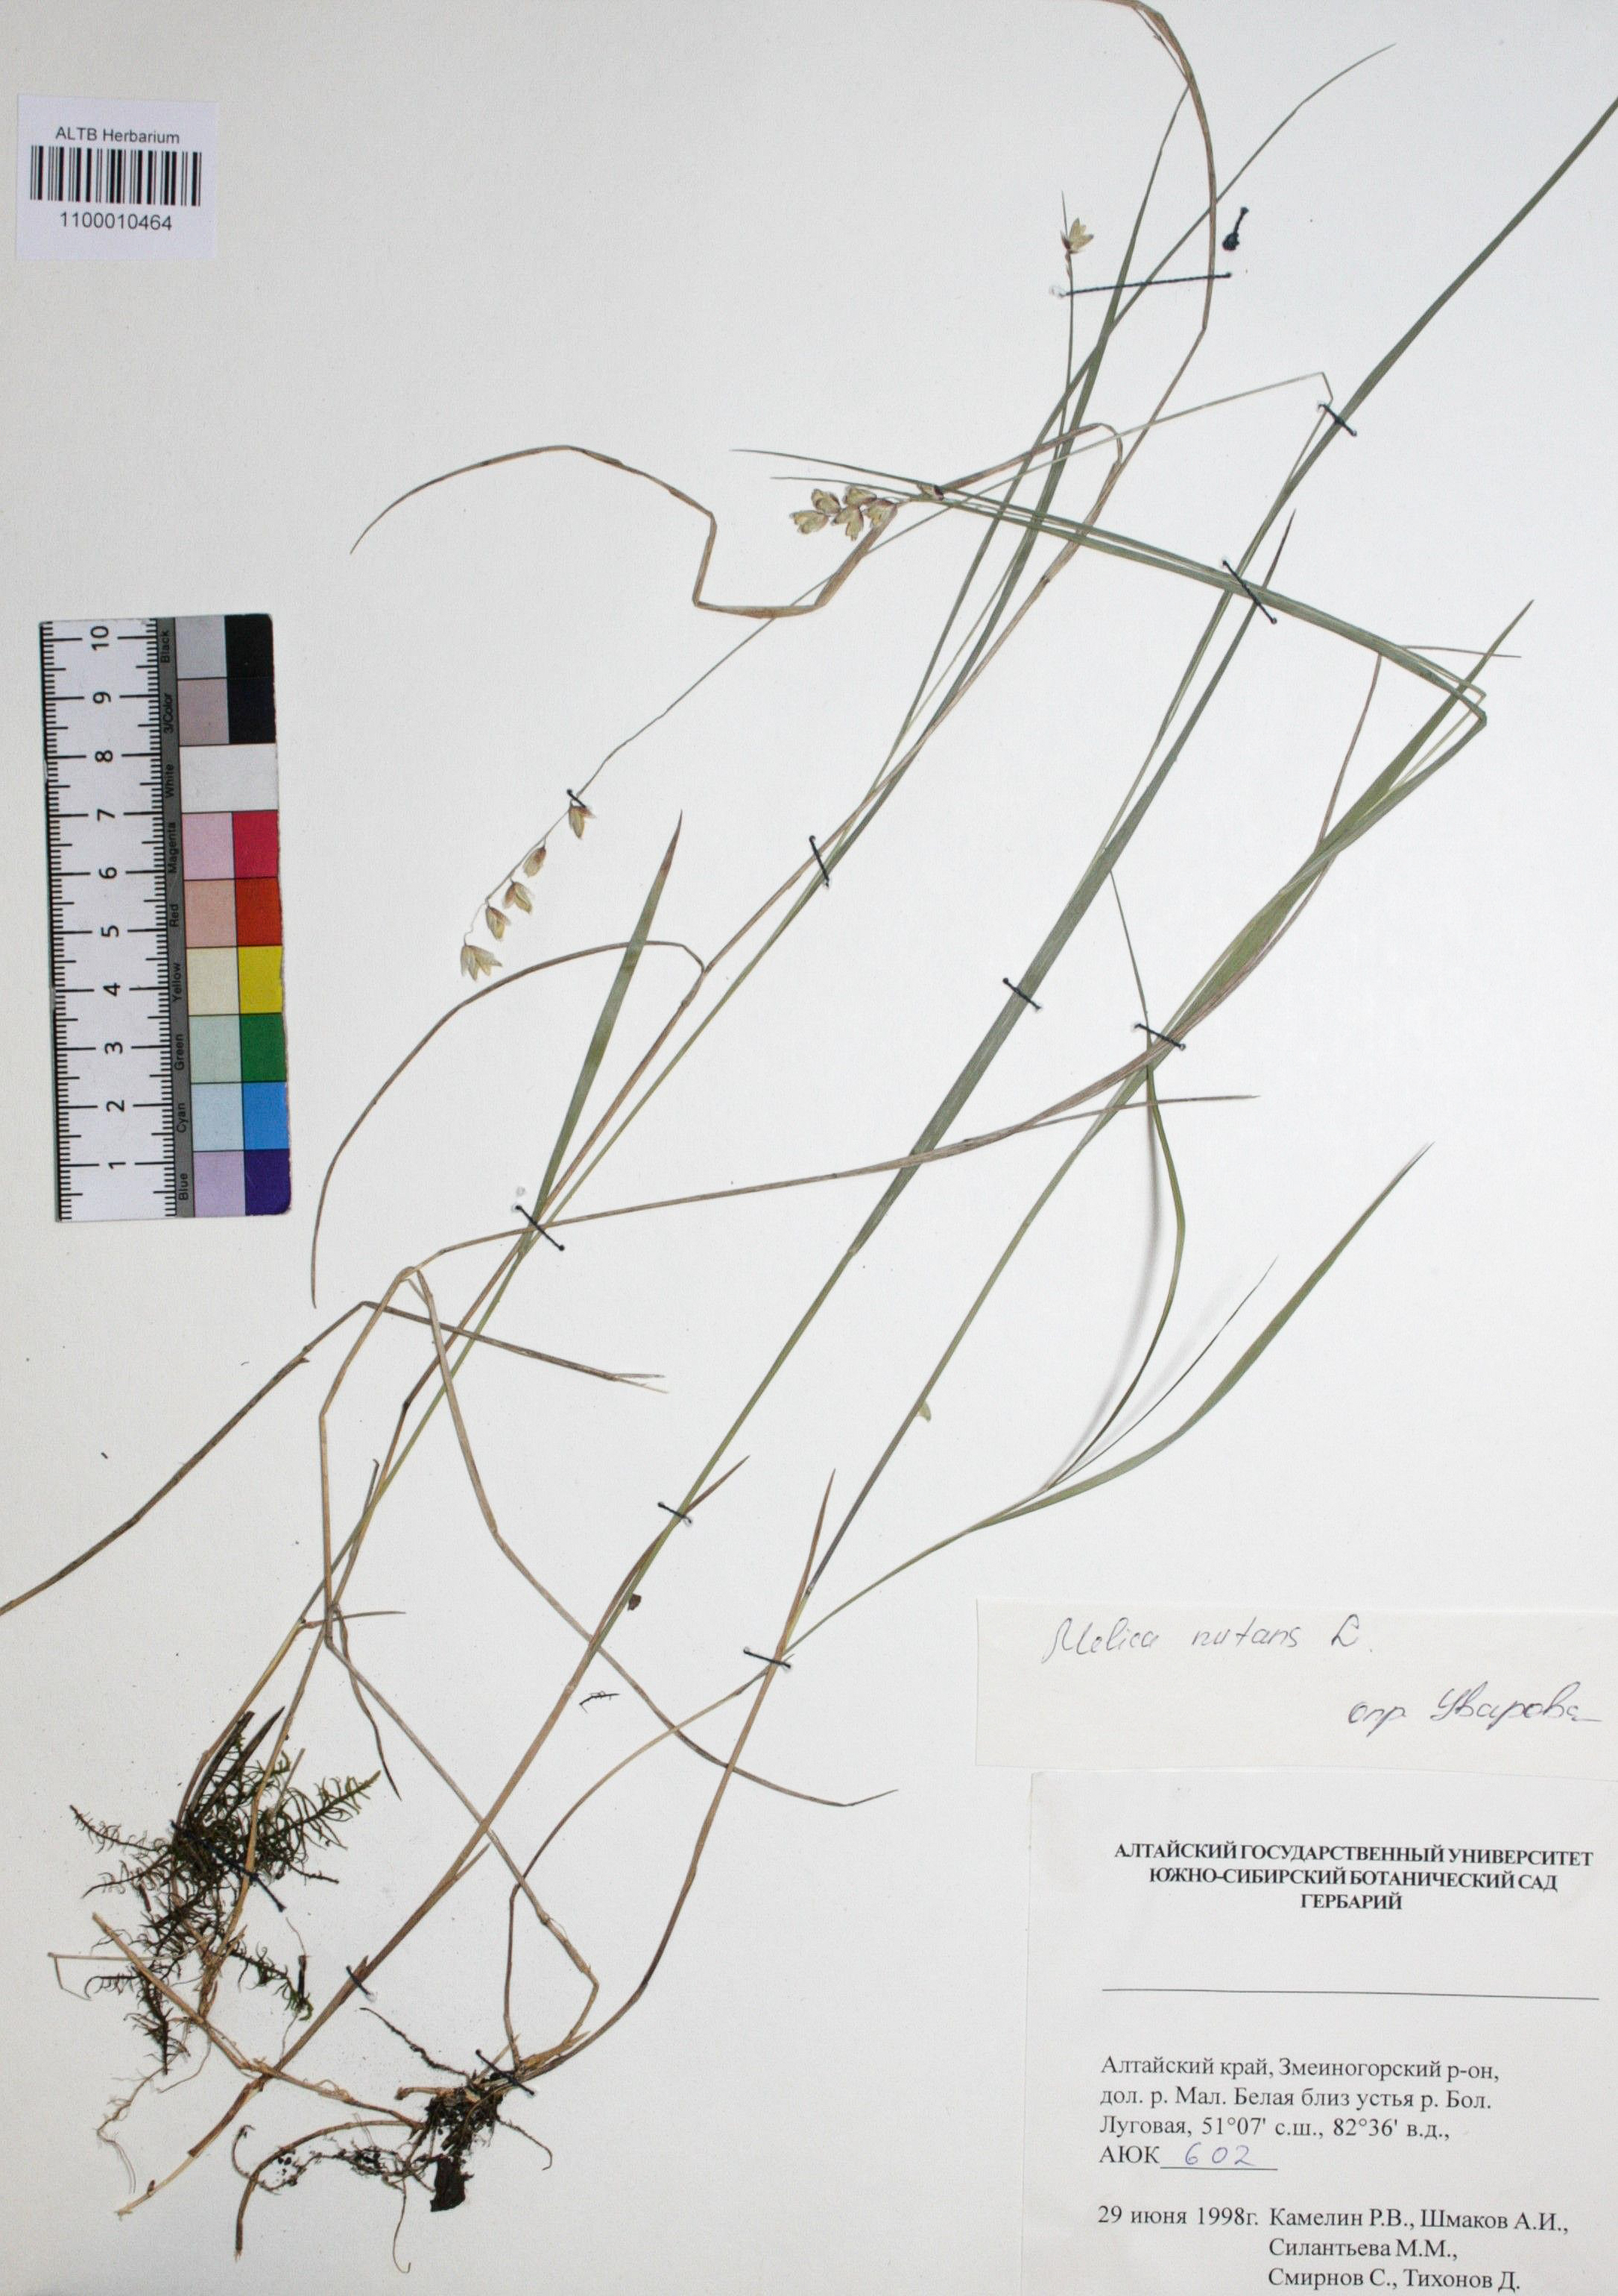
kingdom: Plantae
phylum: Tracheophyta
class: Liliopsida
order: Poales
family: Poaceae
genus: Melica
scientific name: Melica nutans
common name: Mountain melick
